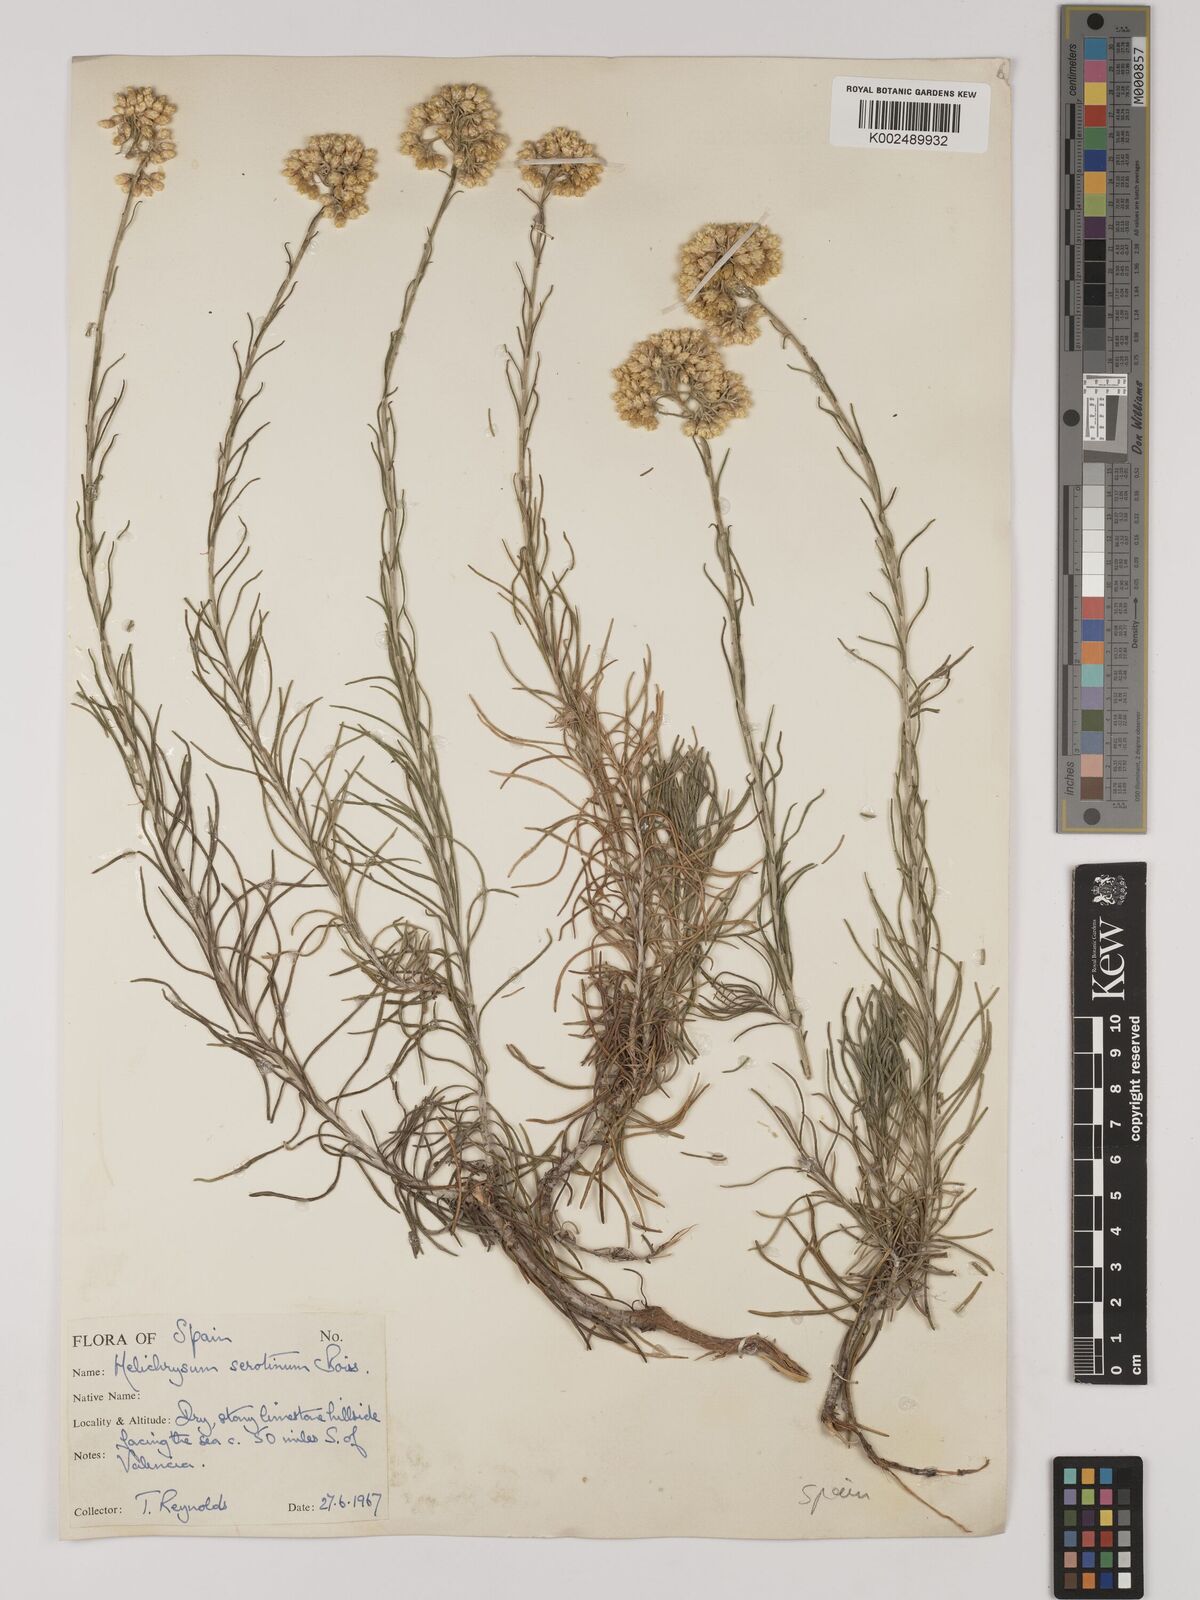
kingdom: Plantae
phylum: Tracheophyta
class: Magnoliopsida
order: Asterales
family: Asteraceae
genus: Helichrysum
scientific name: Helichrysum
